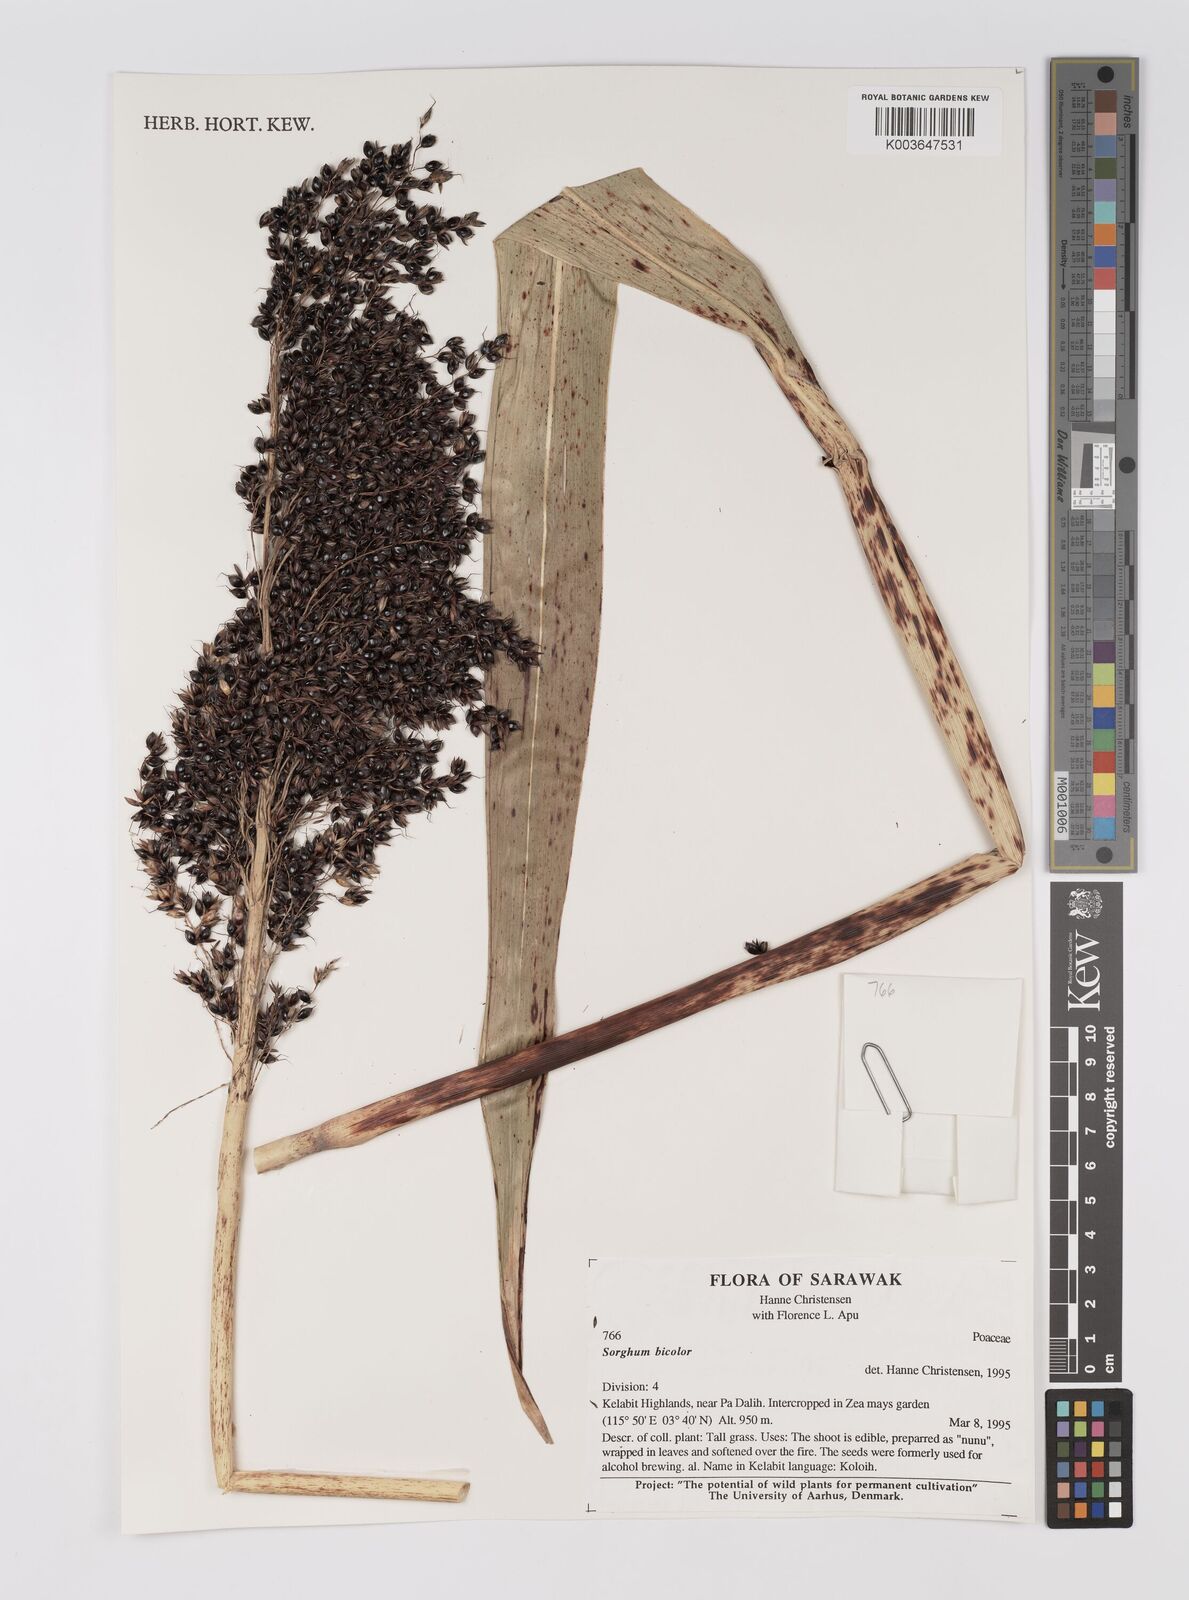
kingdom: Plantae
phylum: Tracheophyta
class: Liliopsida
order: Poales
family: Poaceae
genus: Hyparrhenia
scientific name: Hyparrhenia dichroa
